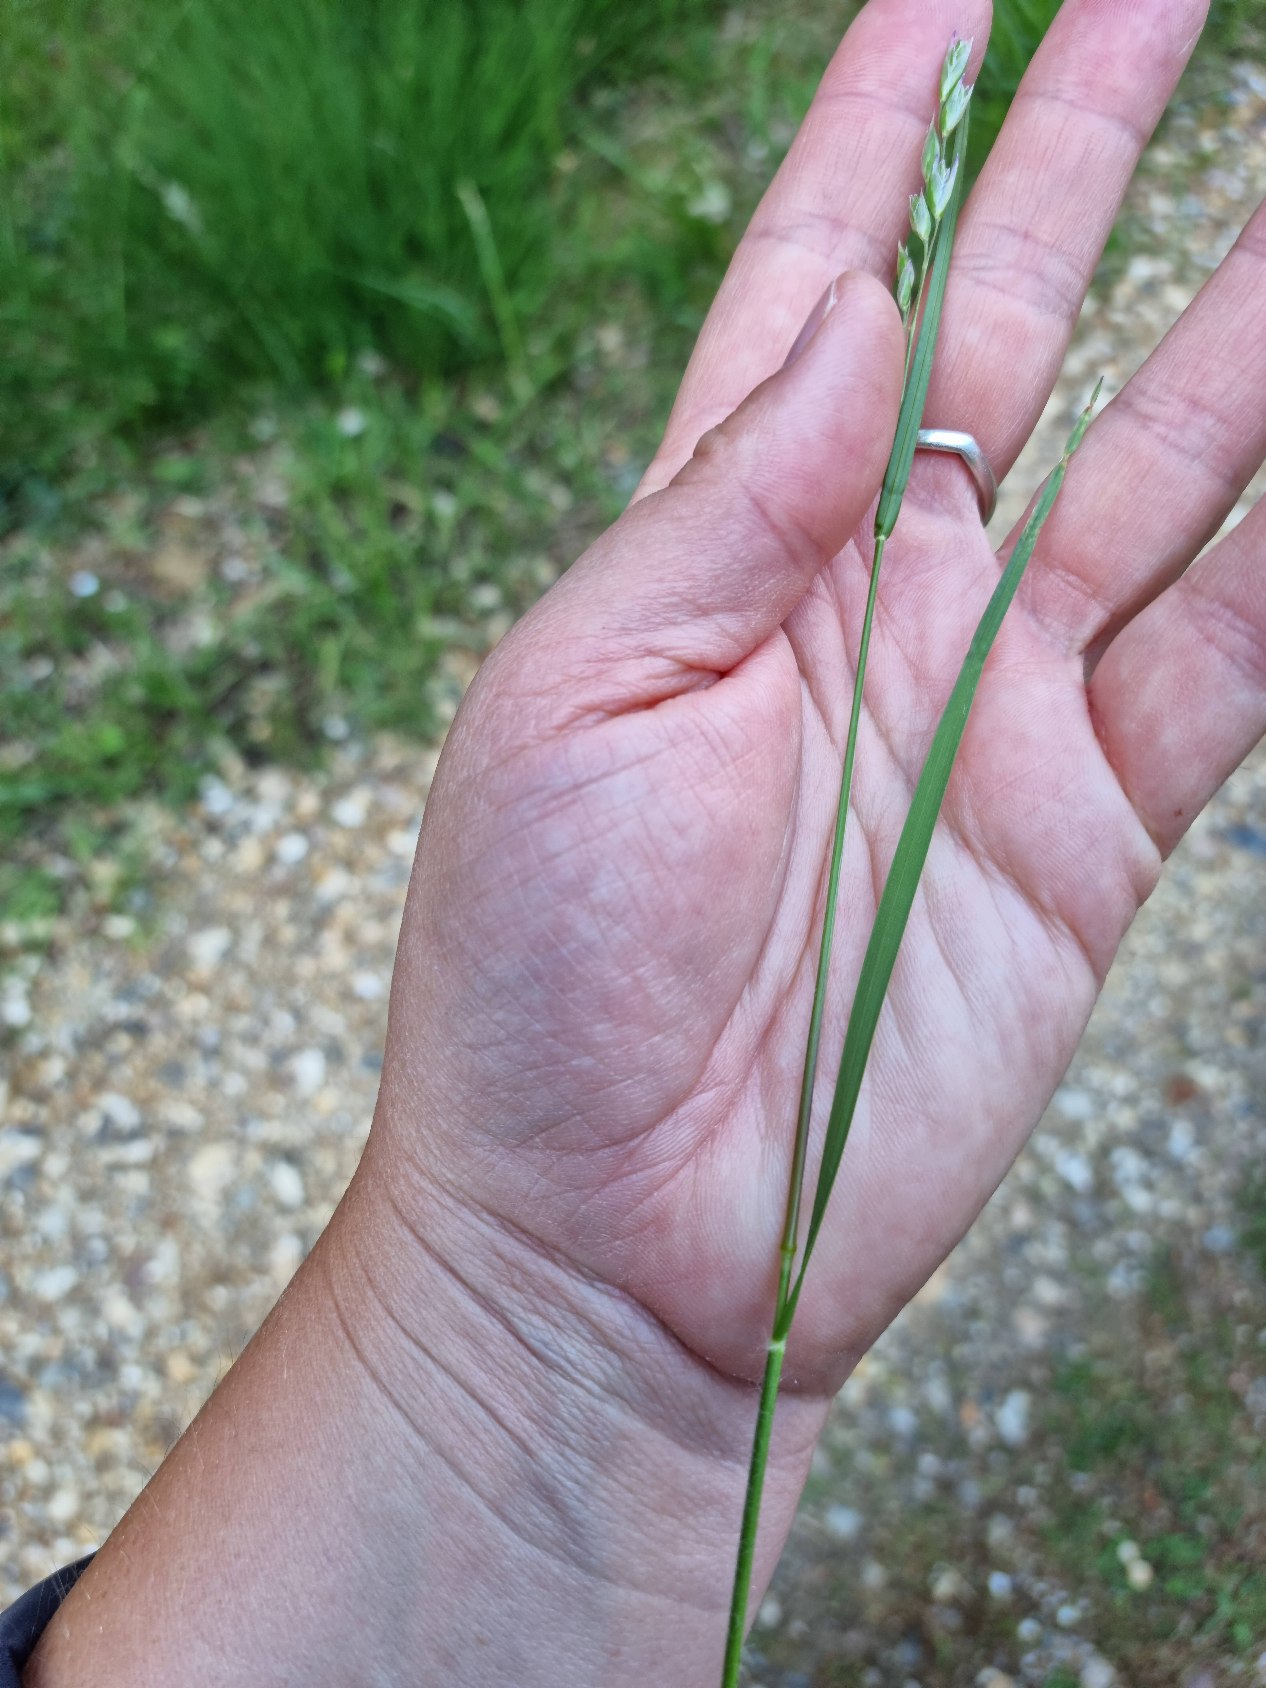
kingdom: Plantae
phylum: Tracheophyta
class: Liliopsida
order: Poales
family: Poaceae
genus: Danthonia
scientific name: Danthonia decumbens
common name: Tandbælg
